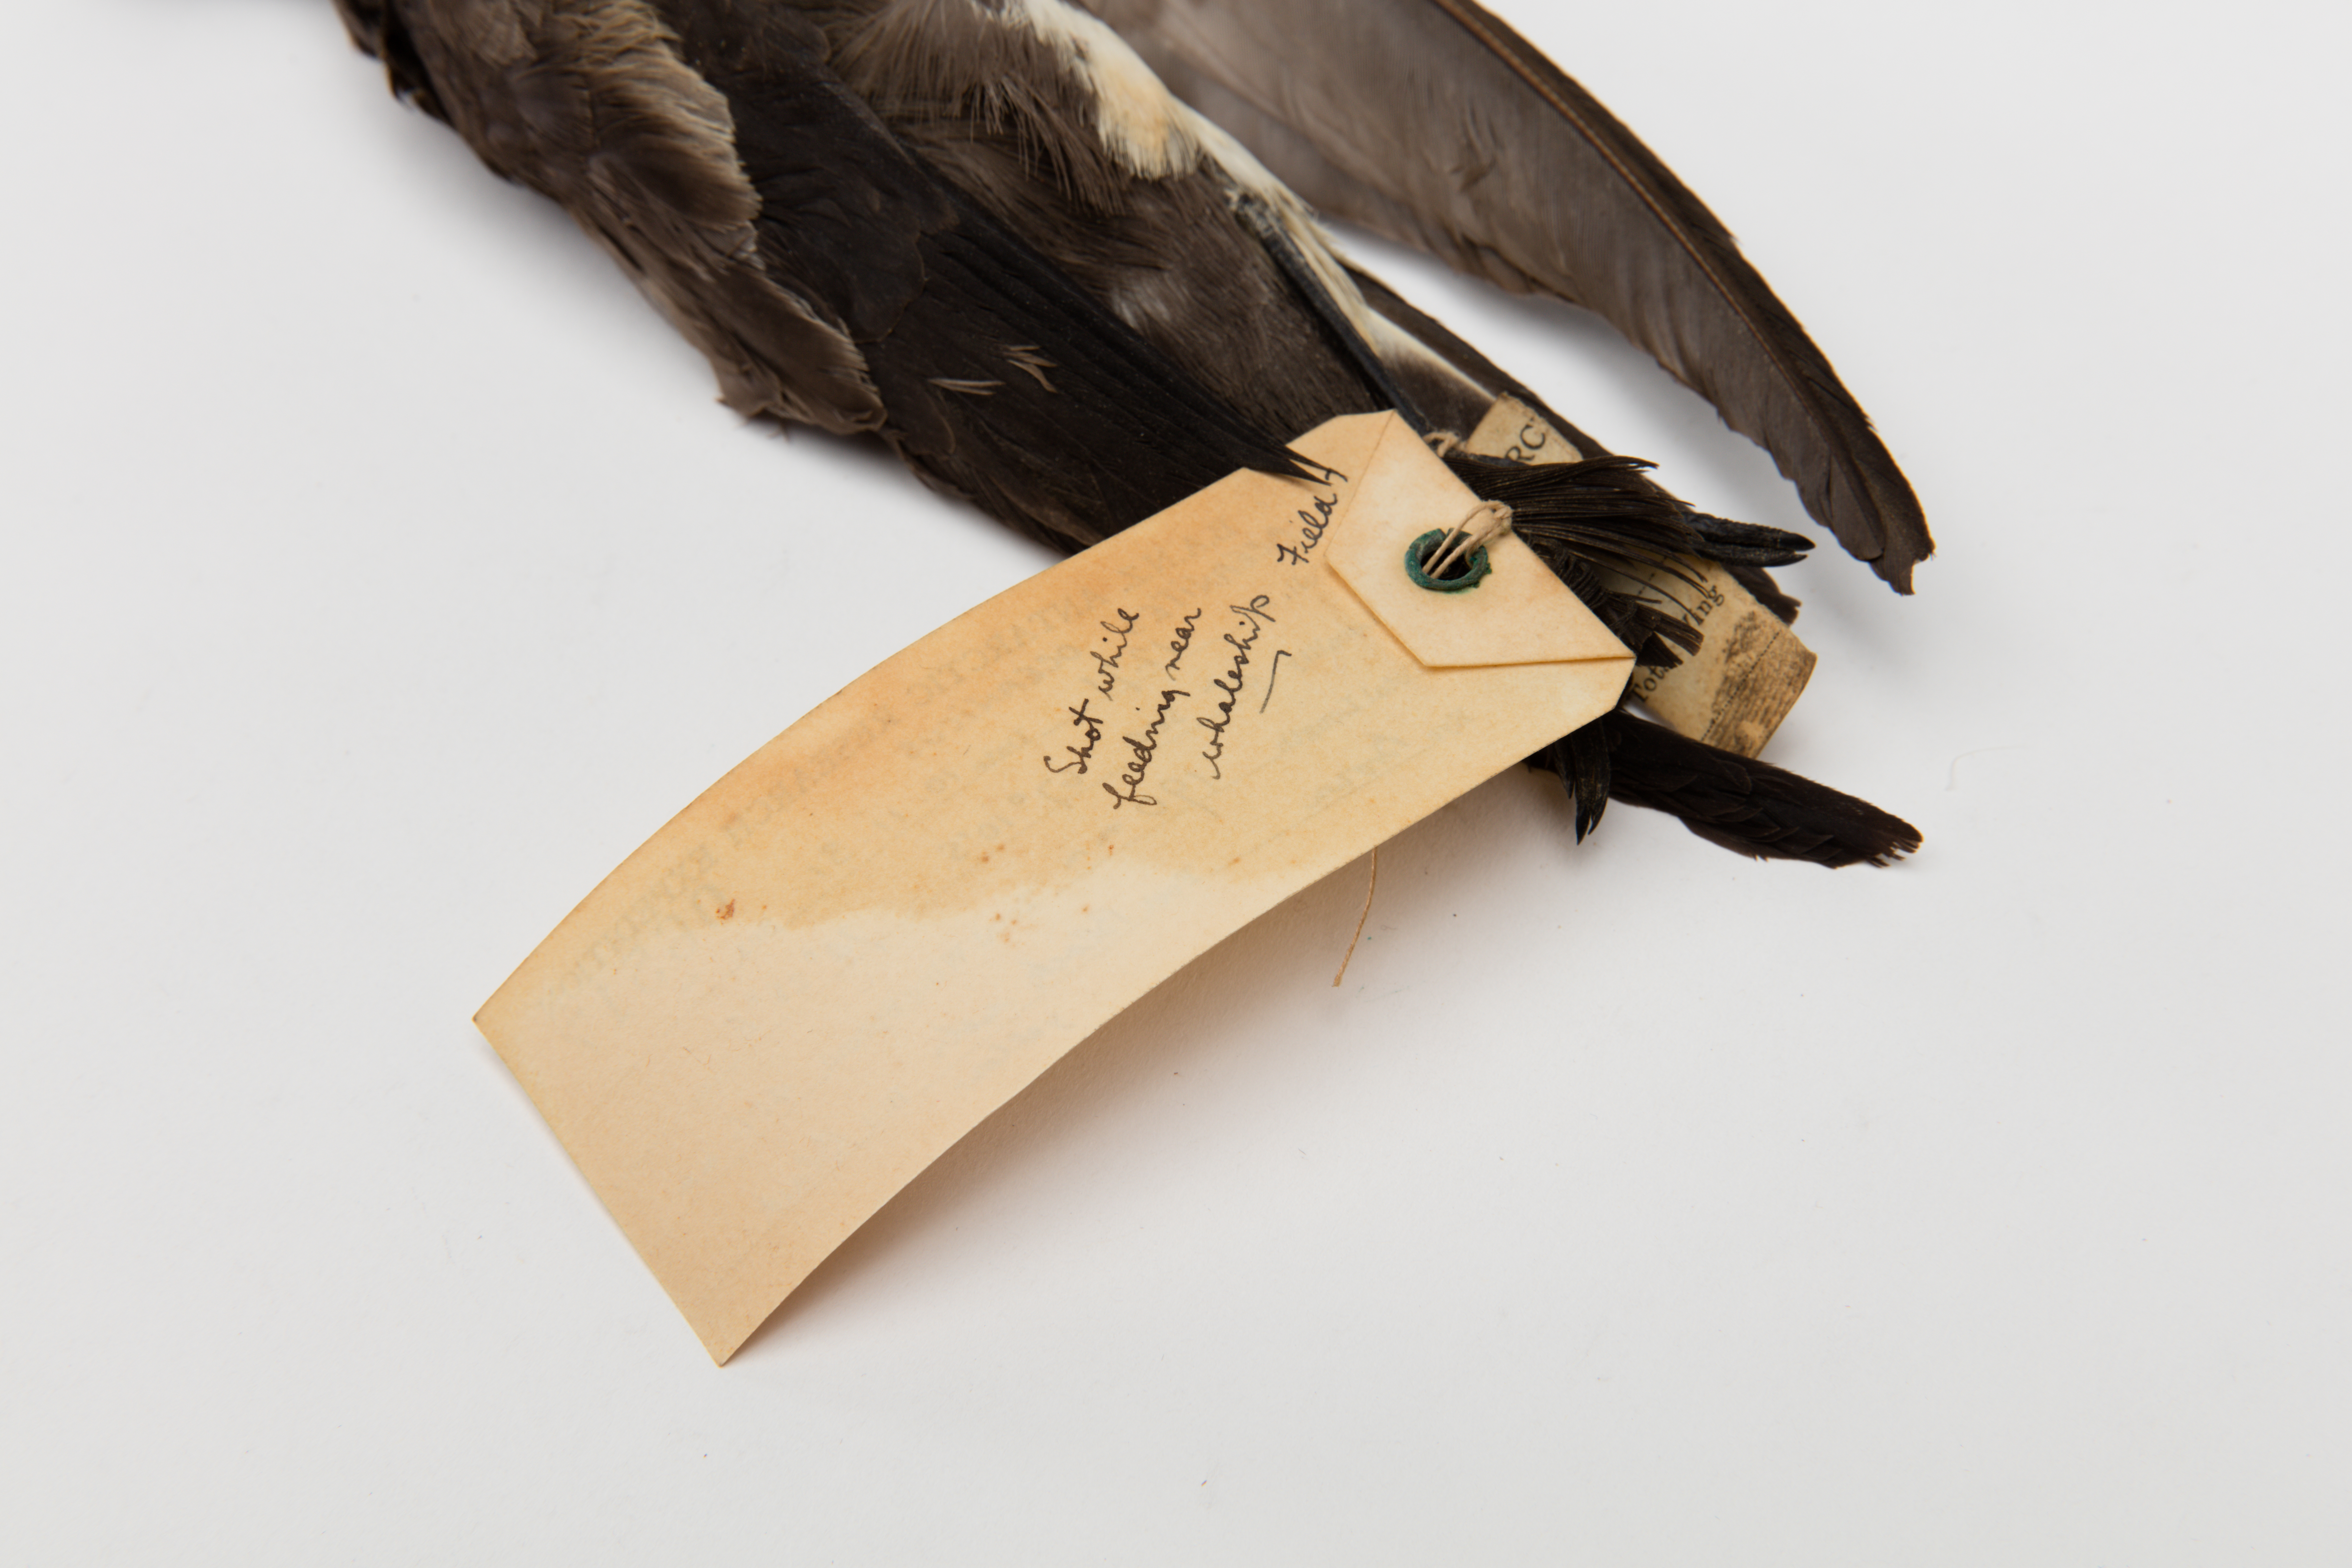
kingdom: Animalia
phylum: Chordata
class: Aves
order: Procellariiformes
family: Hydrobatidae
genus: Oceanites
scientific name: Oceanites oceanicus
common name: Wilson's storm petrel
